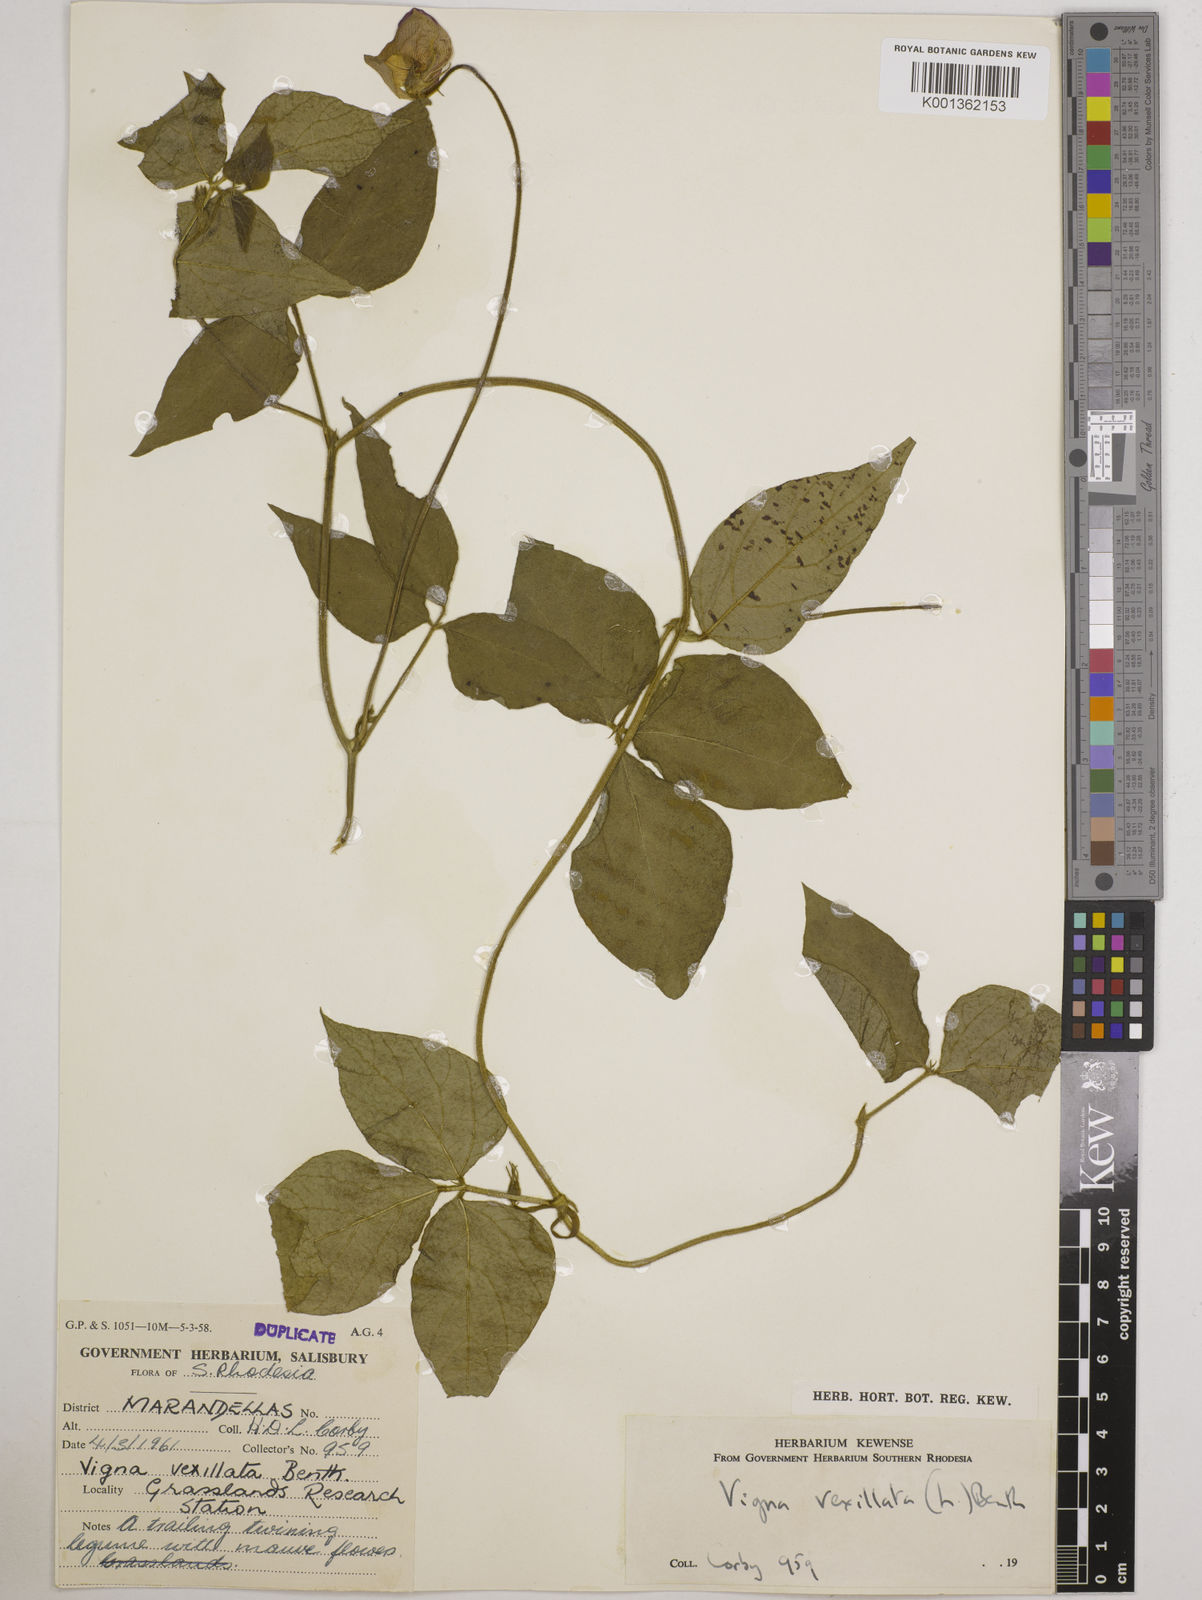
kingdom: Plantae
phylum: Tracheophyta
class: Magnoliopsida
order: Fabales
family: Fabaceae
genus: Vigna
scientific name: Vigna vexillata
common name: Zombi pea
